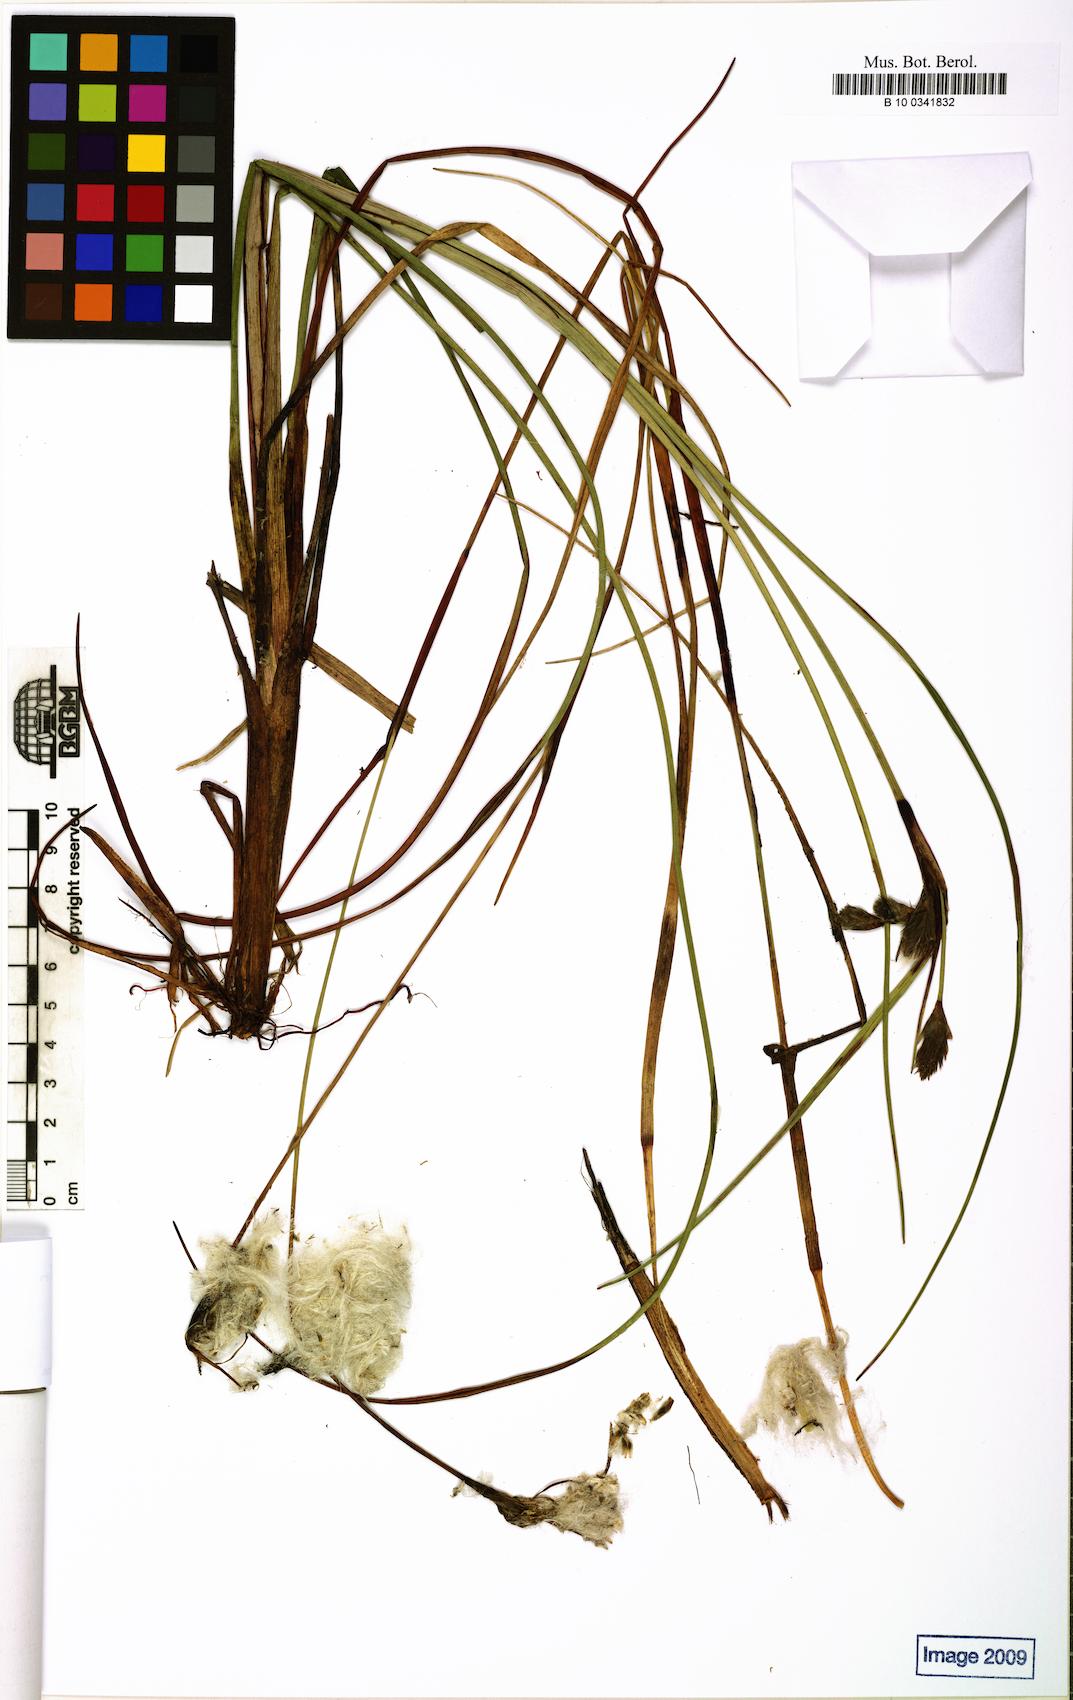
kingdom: Plantae
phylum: Tracheophyta
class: Liliopsida
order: Poales
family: Cyperaceae
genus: Eriophorum
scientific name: Eriophorum angustifolium
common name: Common cottongrass
